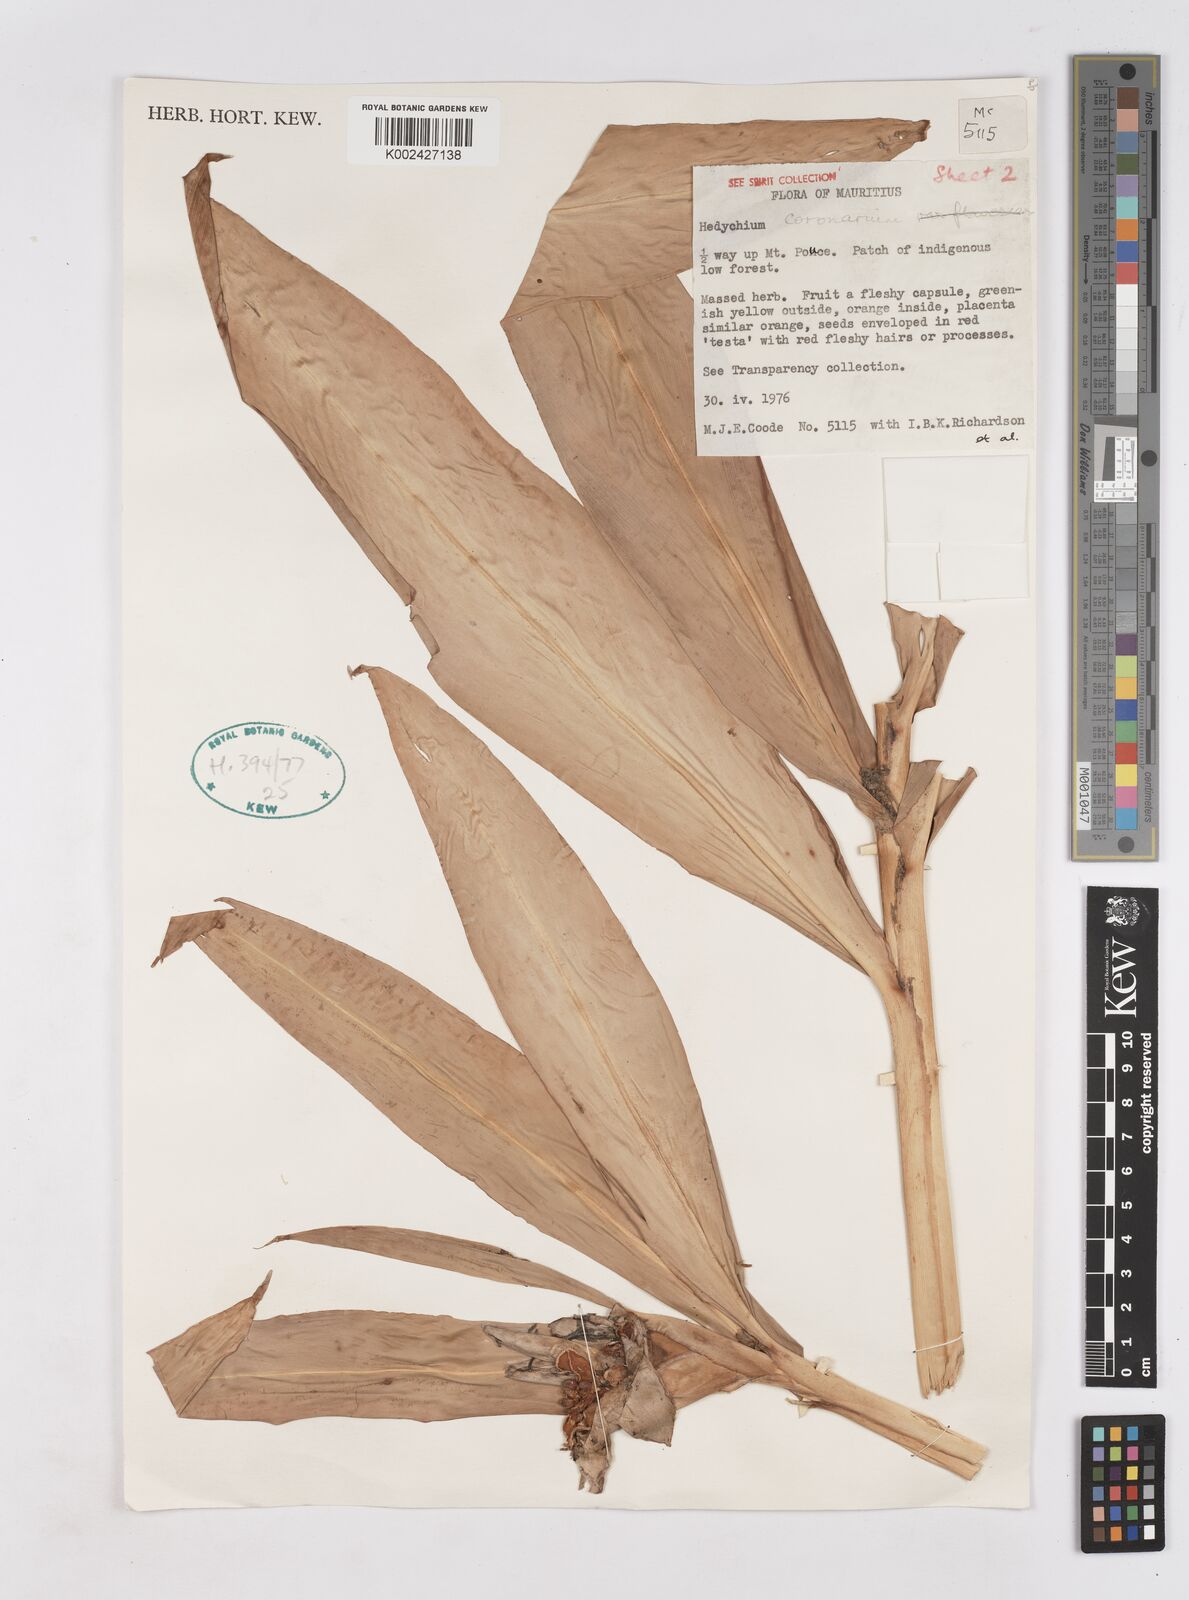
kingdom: Plantae
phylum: Tracheophyta
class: Liliopsida
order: Zingiberales
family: Zingiberaceae
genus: Hedychium
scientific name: Hedychium coronarium
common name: White garland-lily
